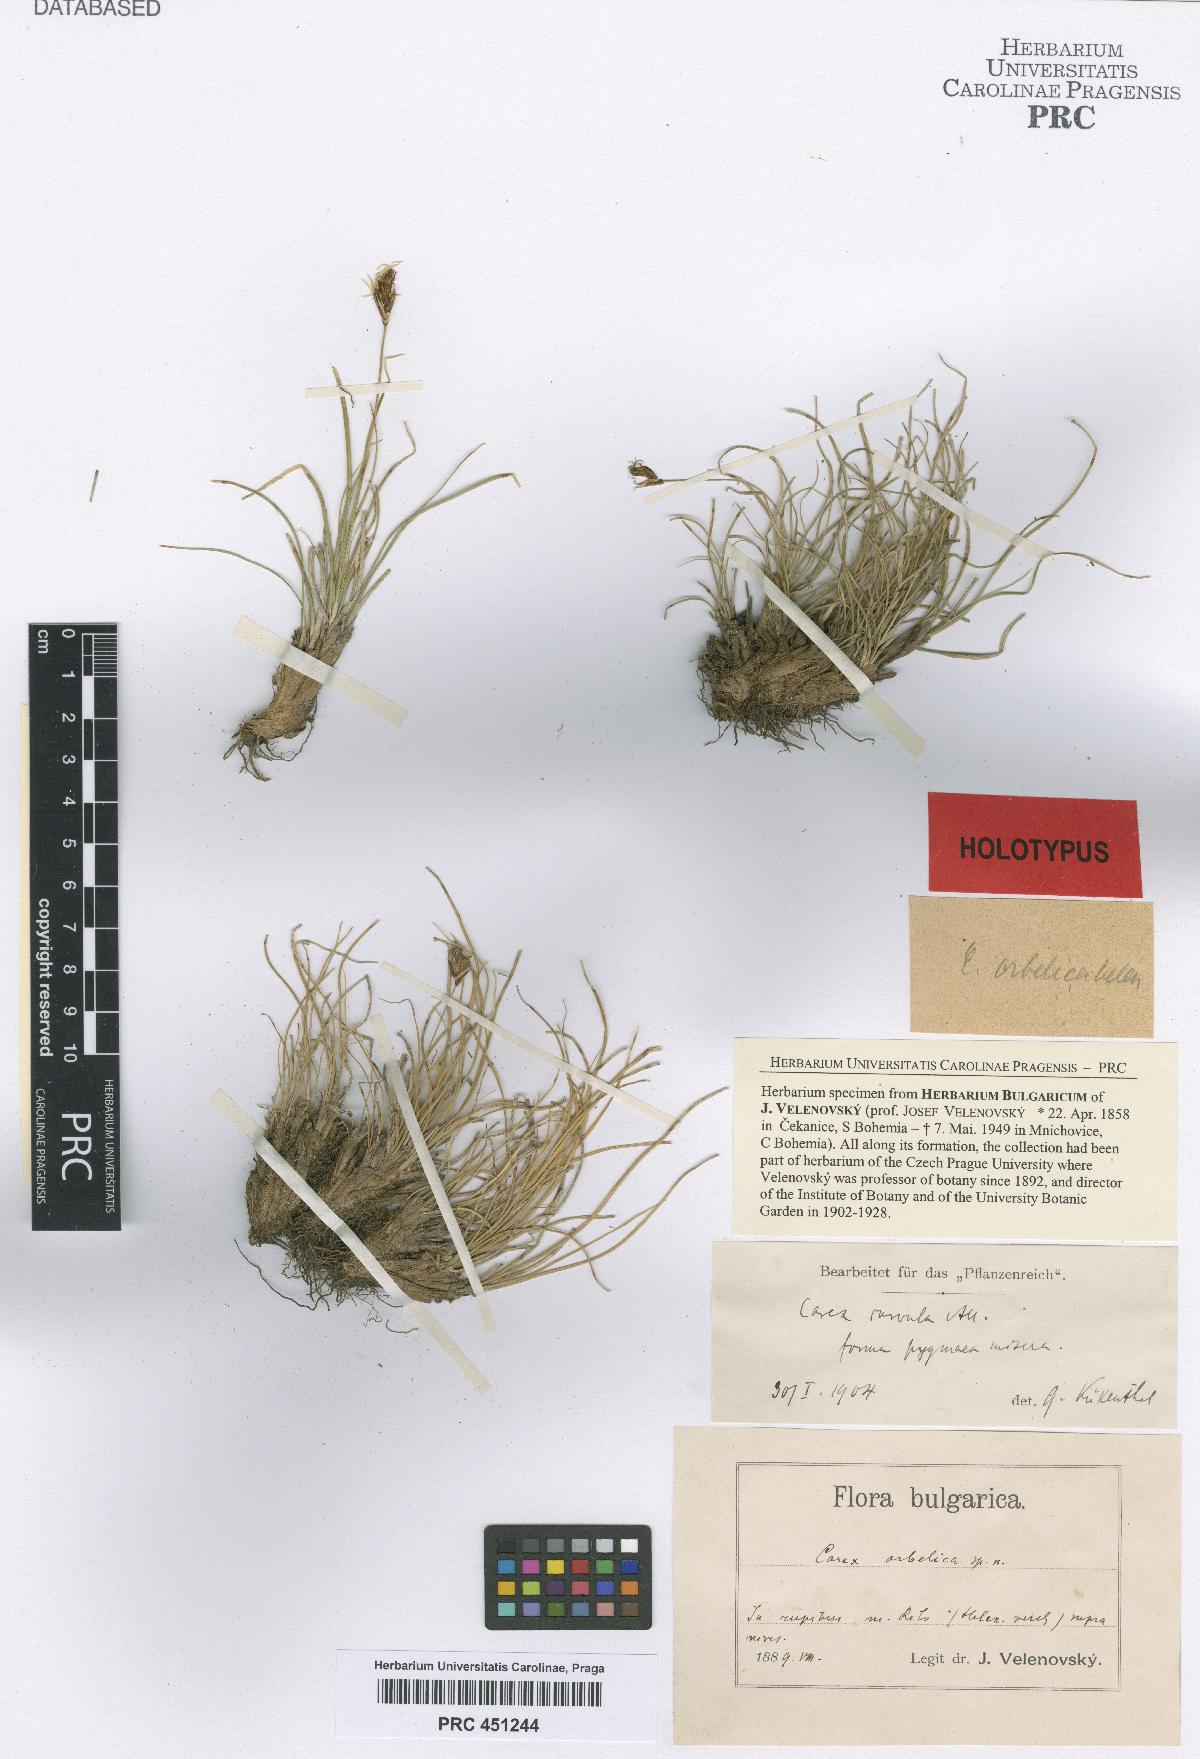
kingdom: Plantae
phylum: Tracheophyta
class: Liliopsida
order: Poales
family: Cyperaceae
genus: Carex
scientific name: Carex curvula
